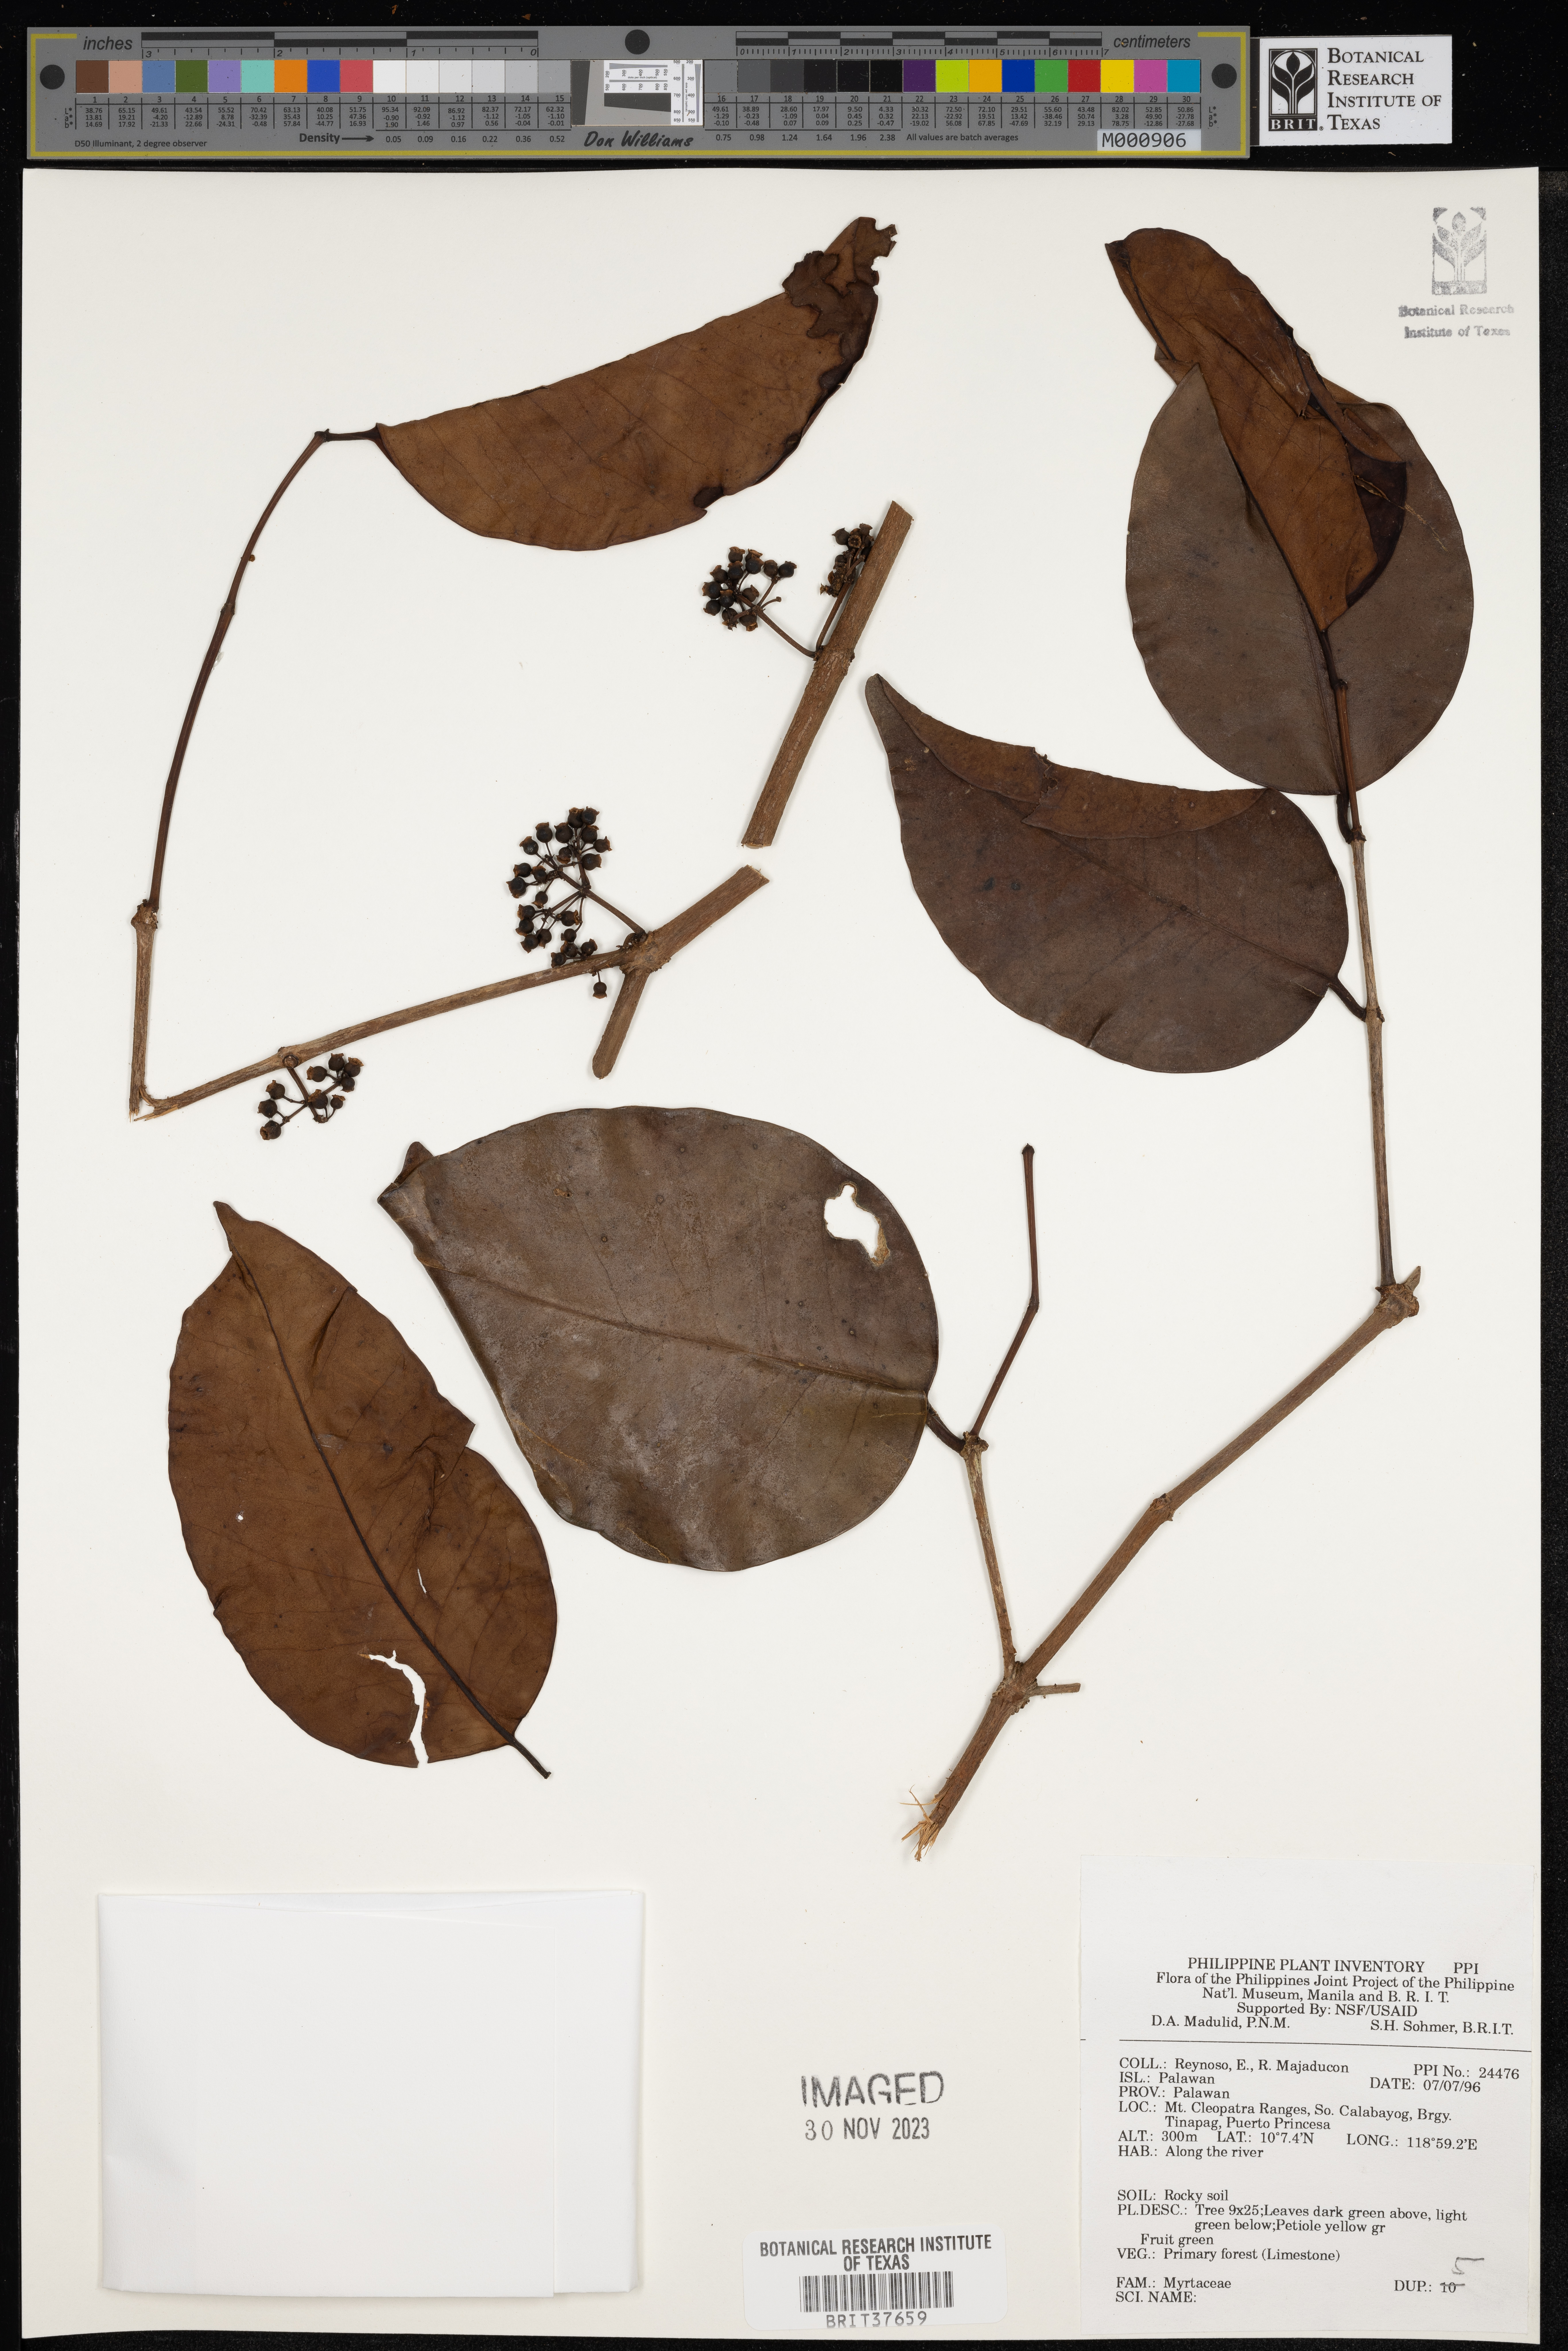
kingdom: Plantae
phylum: Tracheophyta
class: Magnoliopsida
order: Myrtales
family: Myrtaceae
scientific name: Myrtaceae
